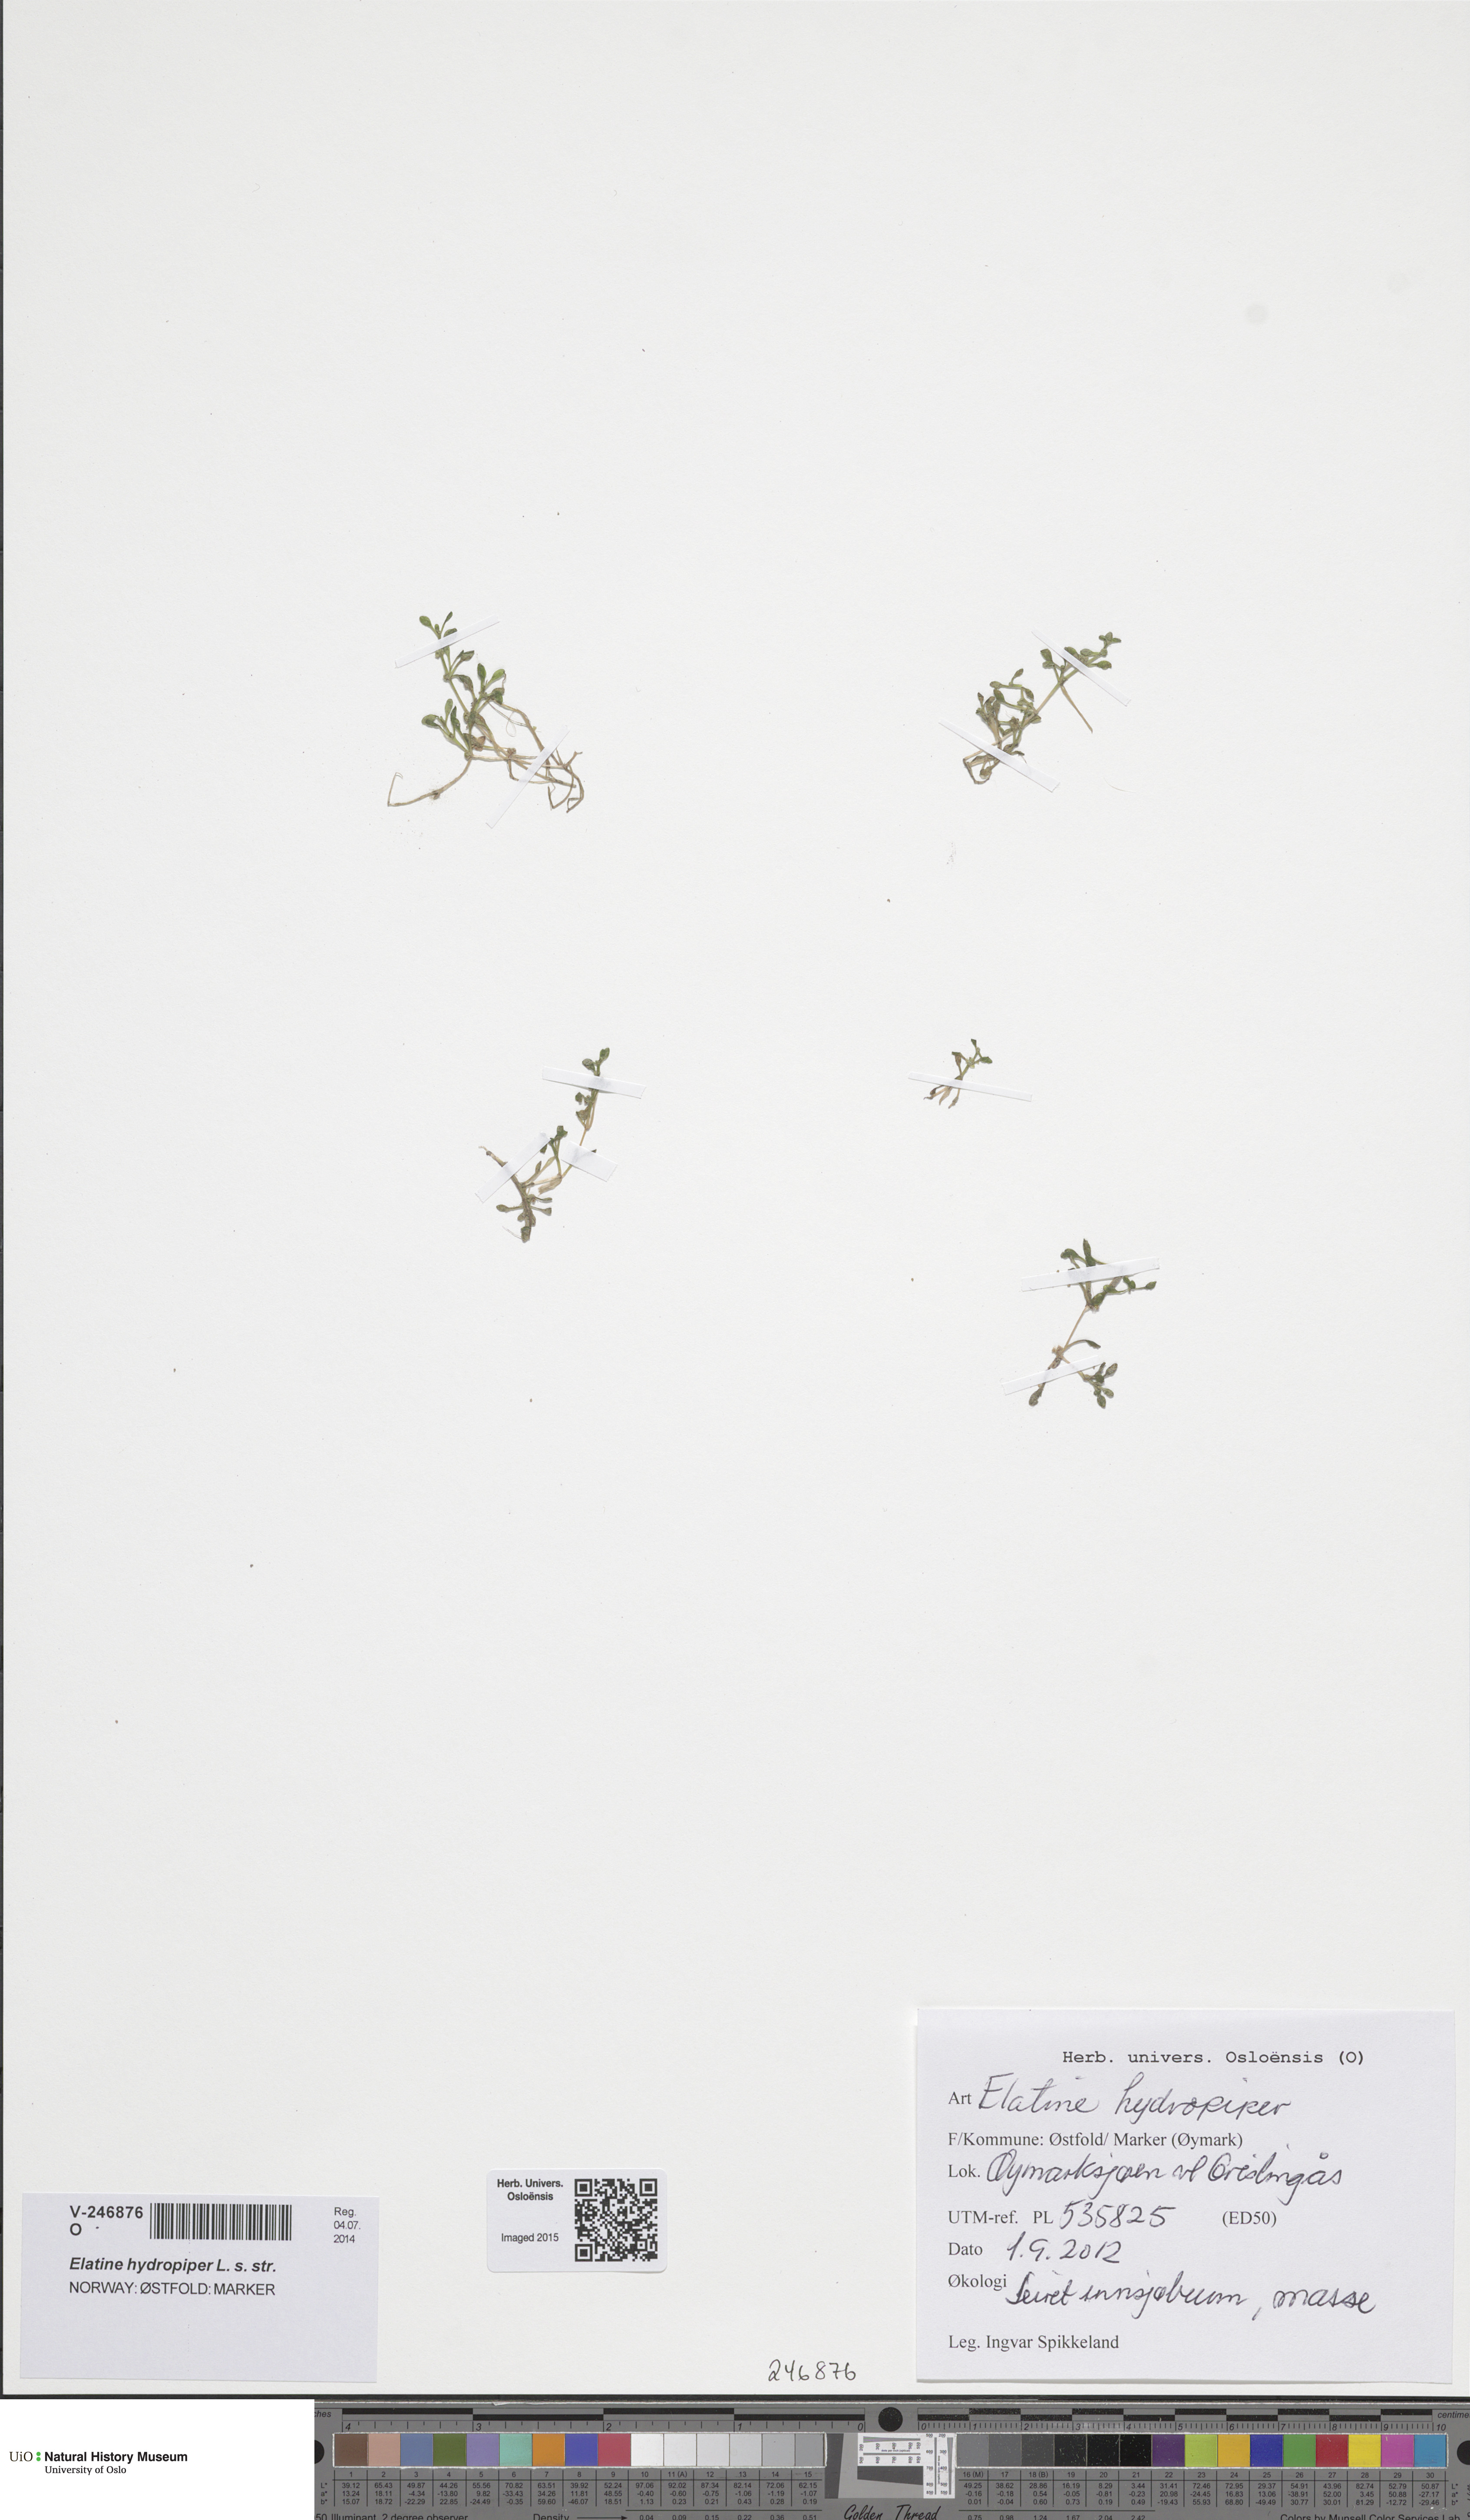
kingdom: Plantae
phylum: Tracheophyta
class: Magnoliopsida
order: Malpighiales
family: Elatinaceae
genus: Elatine
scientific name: Elatine hydropiper
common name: Eight-stamened waterwort
